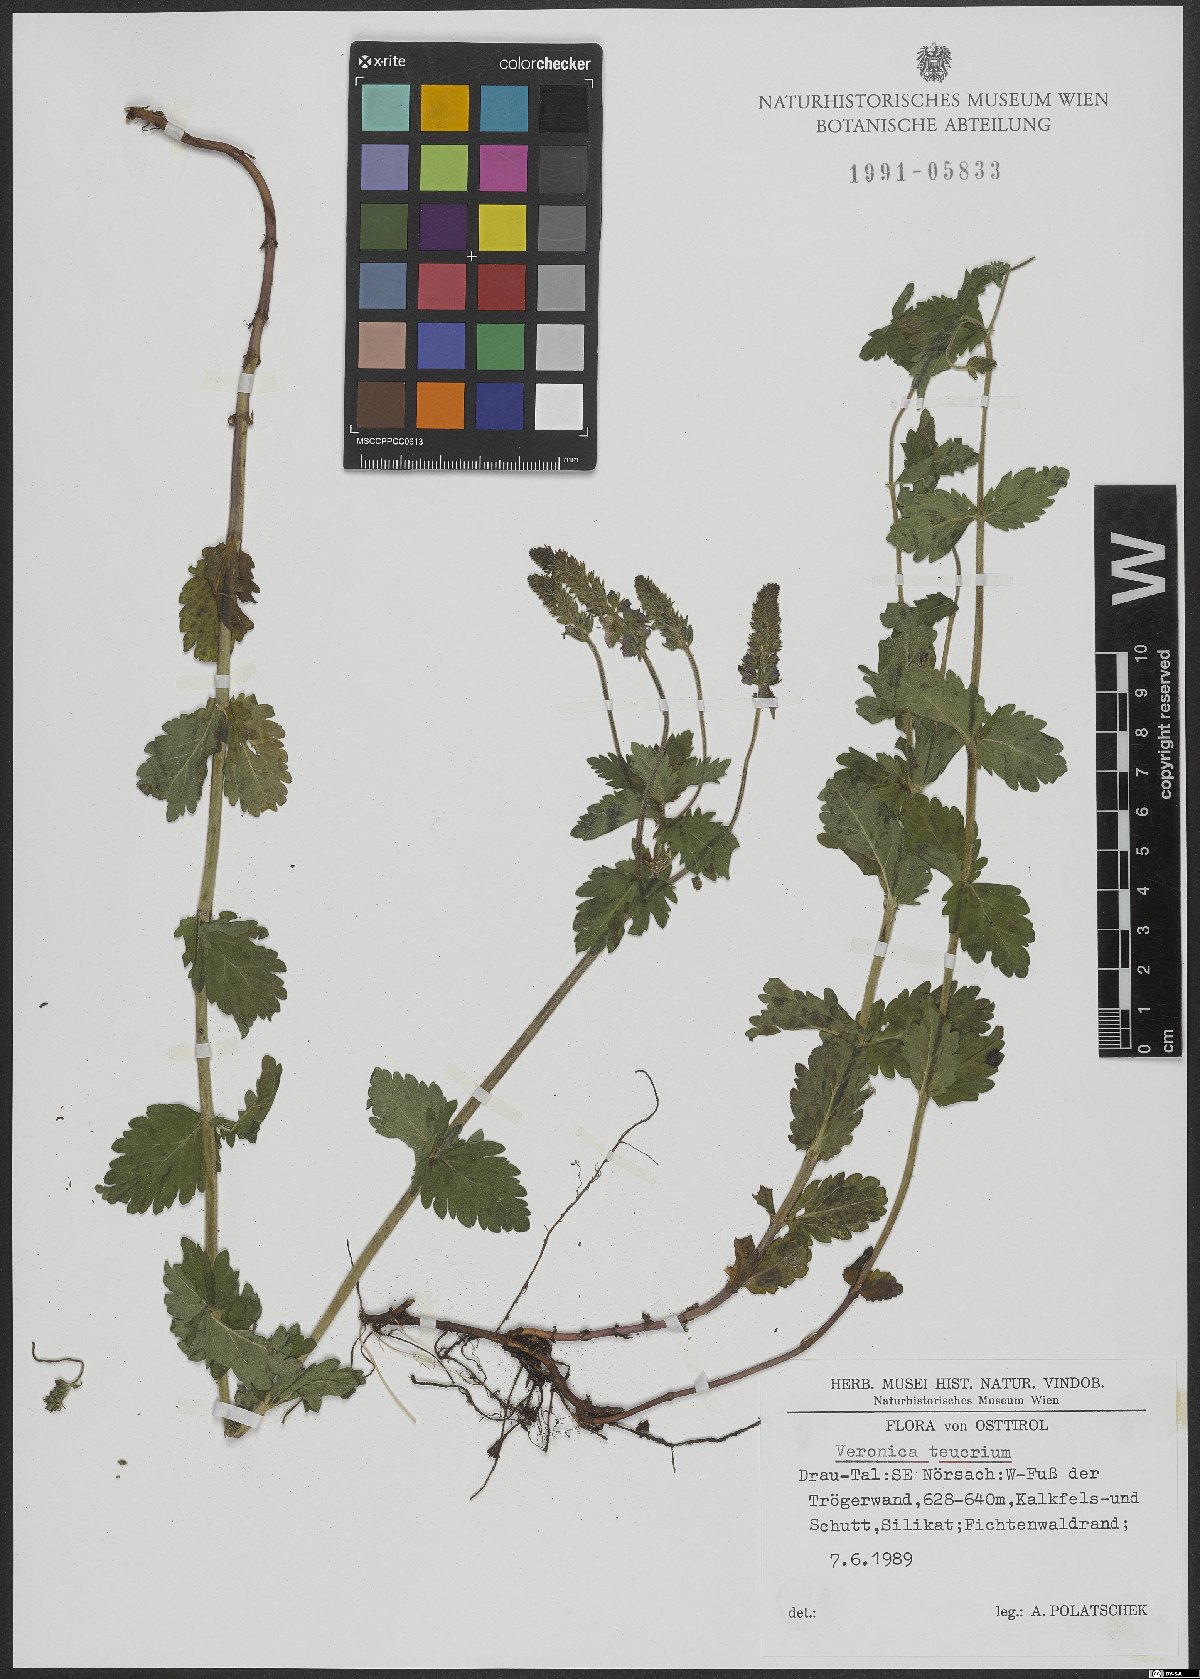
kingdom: Plantae
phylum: Tracheophyta
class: Magnoliopsida
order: Lamiales
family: Plantaginaceae
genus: Veronica
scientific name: Veronica teucrium
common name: Large speedwell
